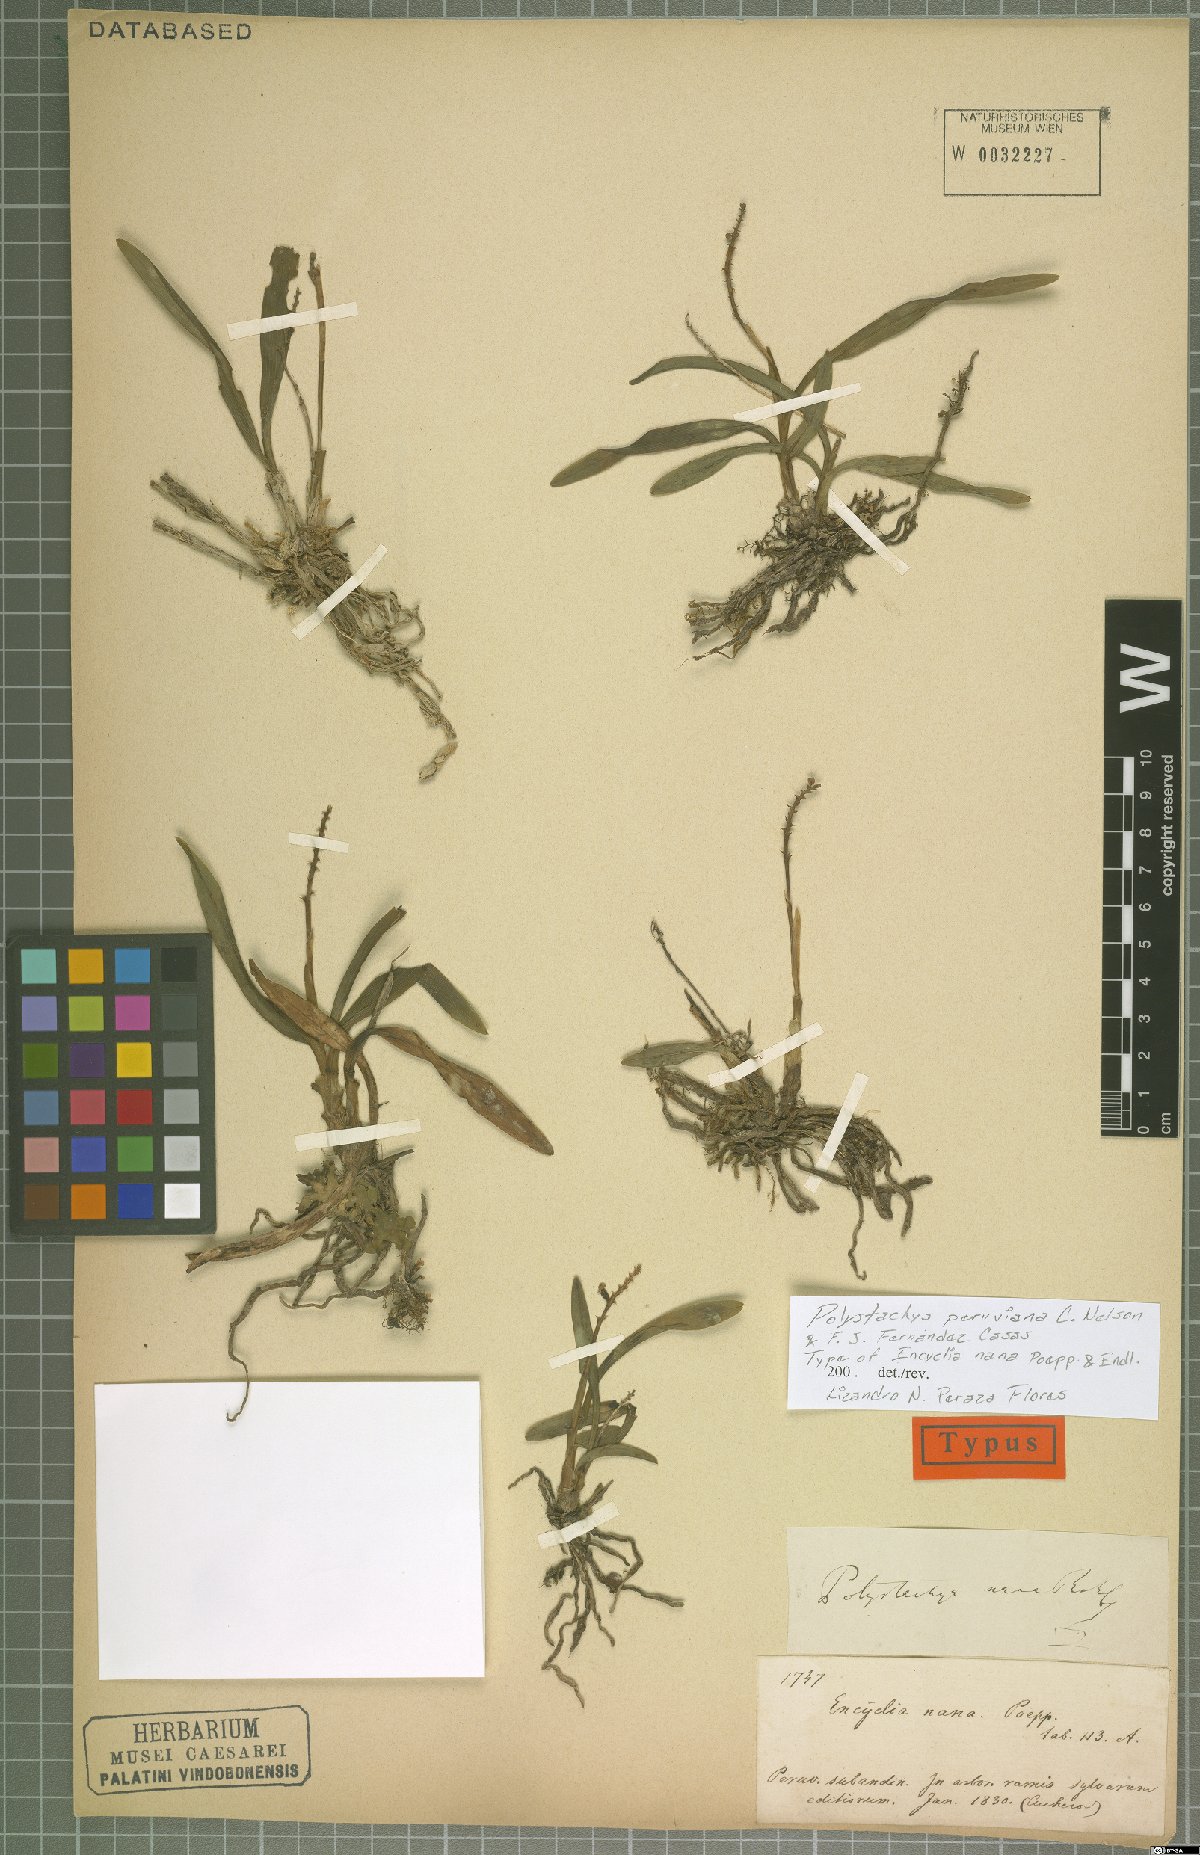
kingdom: Plantae
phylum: Tracheophyta
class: Liliopsida
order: Asparagales
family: Orchidaceae
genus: Polystachya
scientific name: Polystachya paulensis
